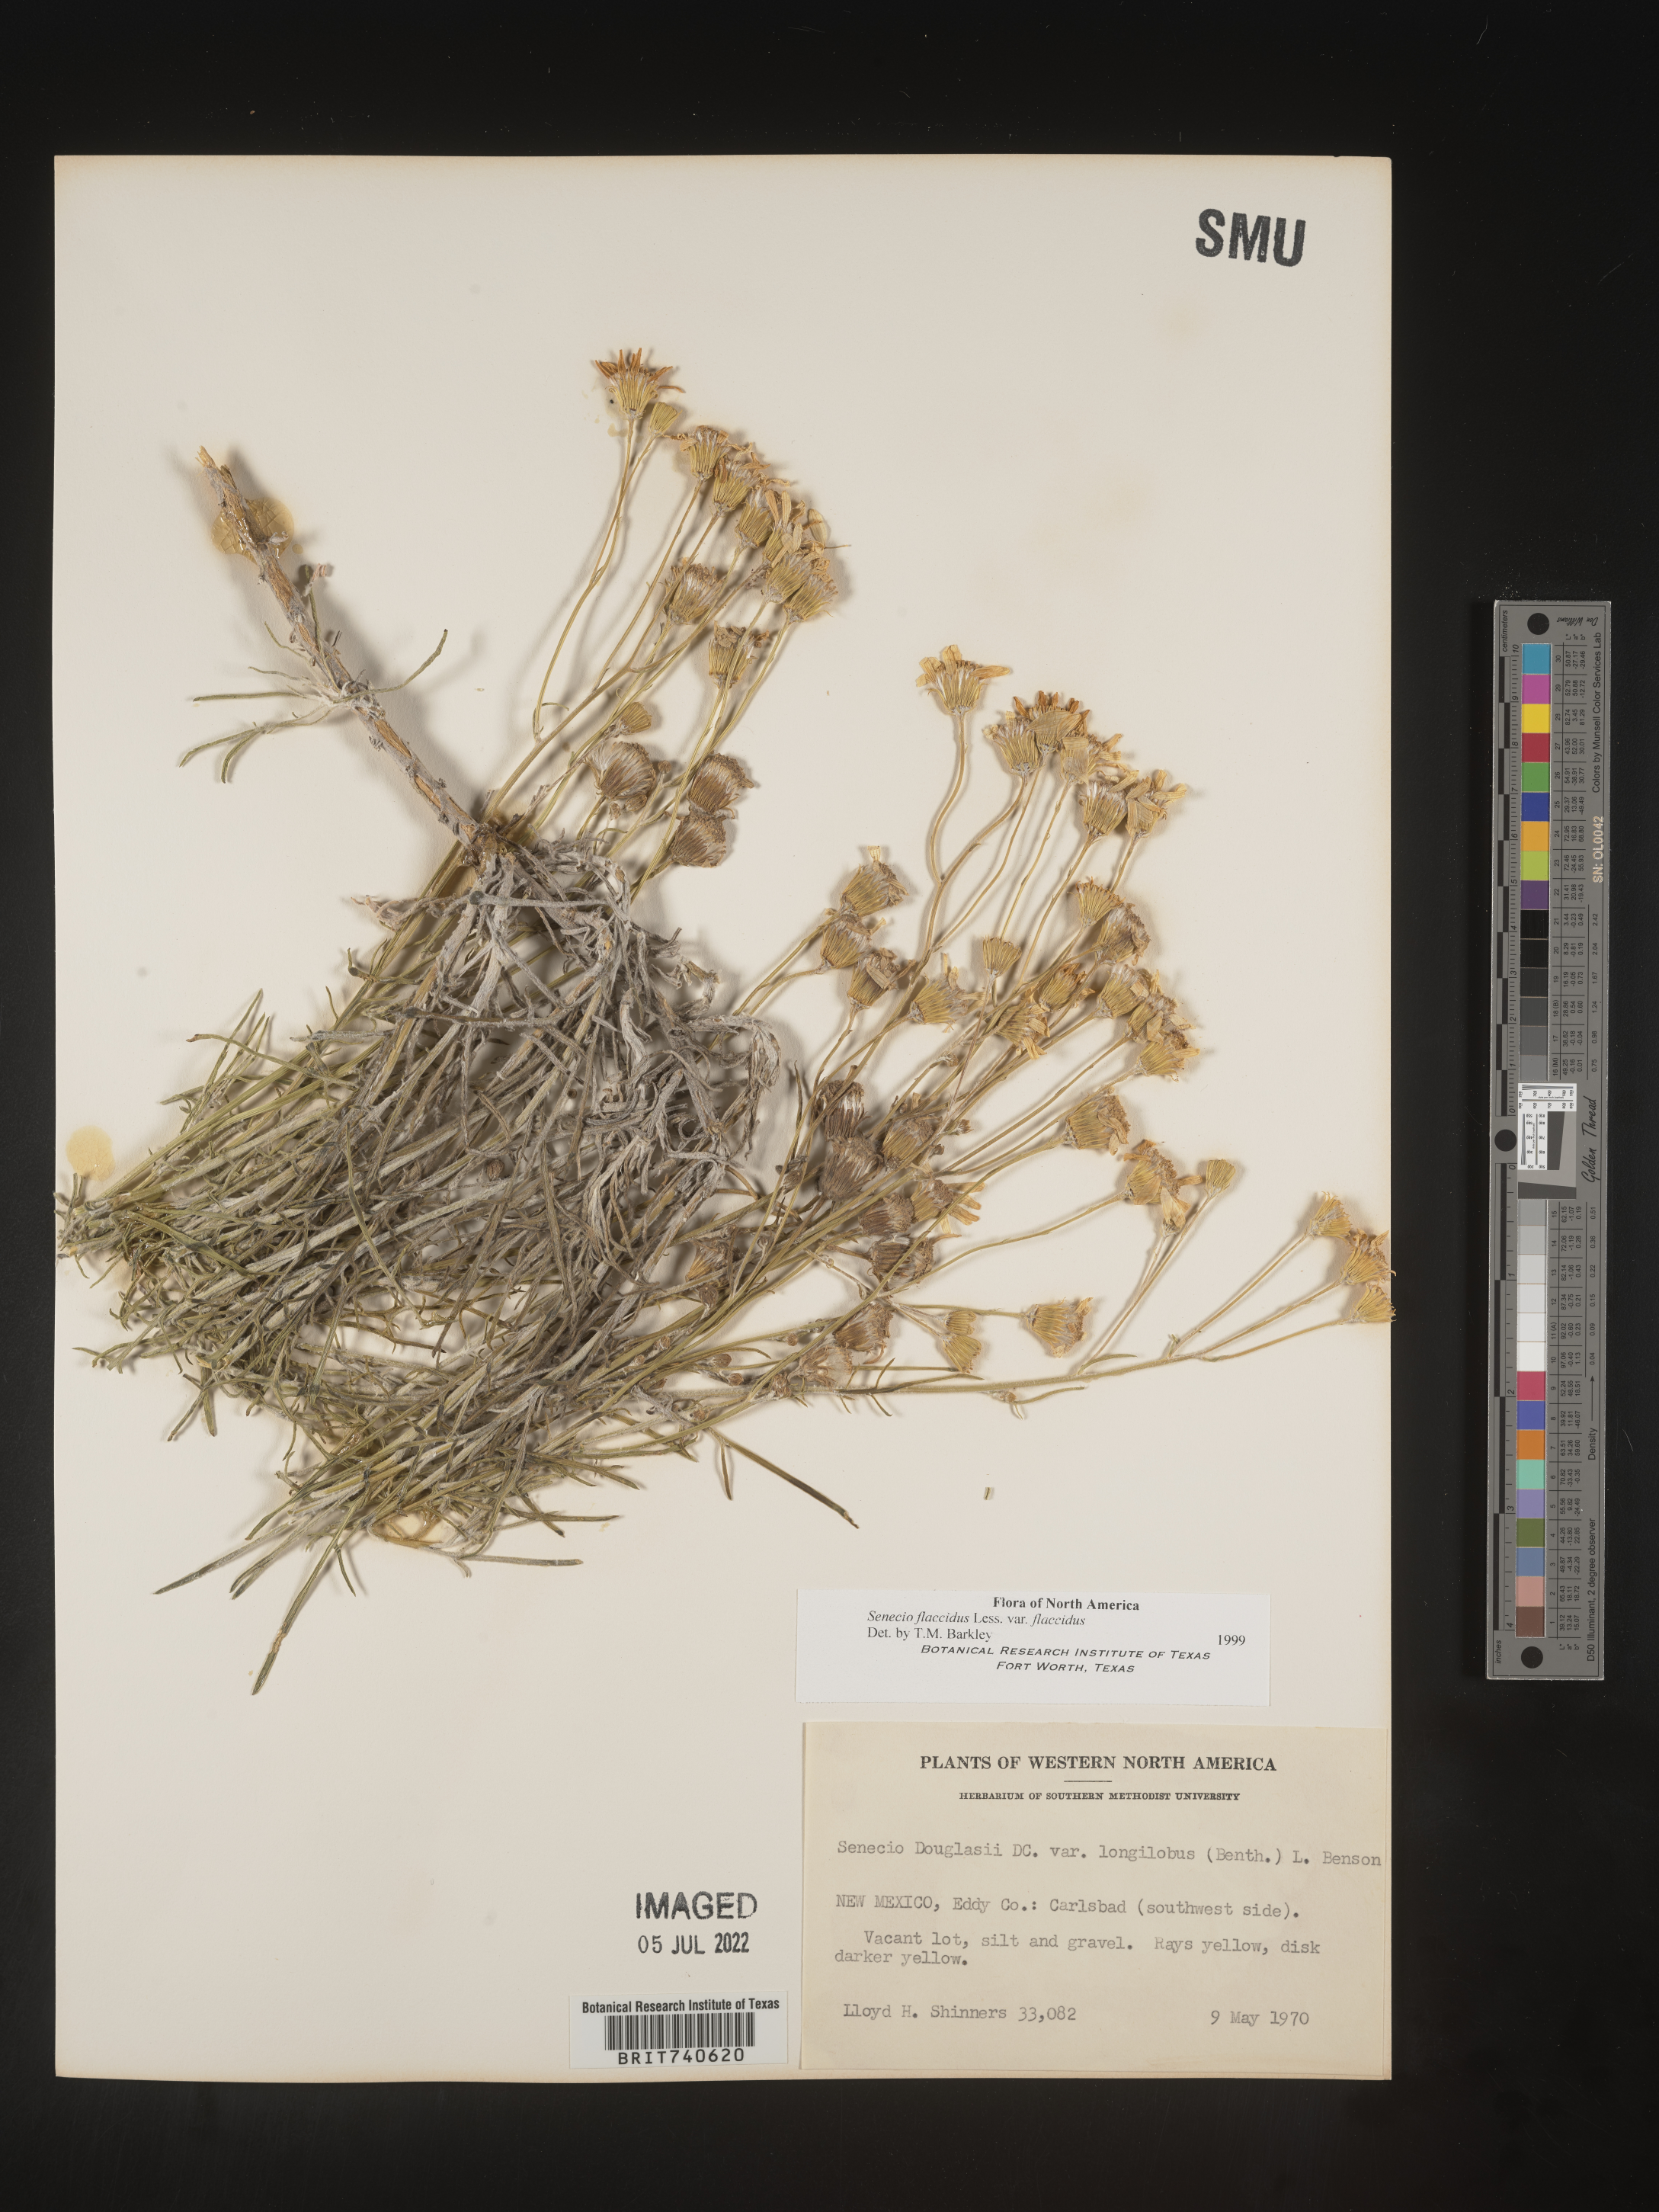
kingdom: Plantae
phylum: Tracheophyta
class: Magnoliopsida
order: Asterales
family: Asteraceae
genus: Senecio
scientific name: Senecio flaccidus
